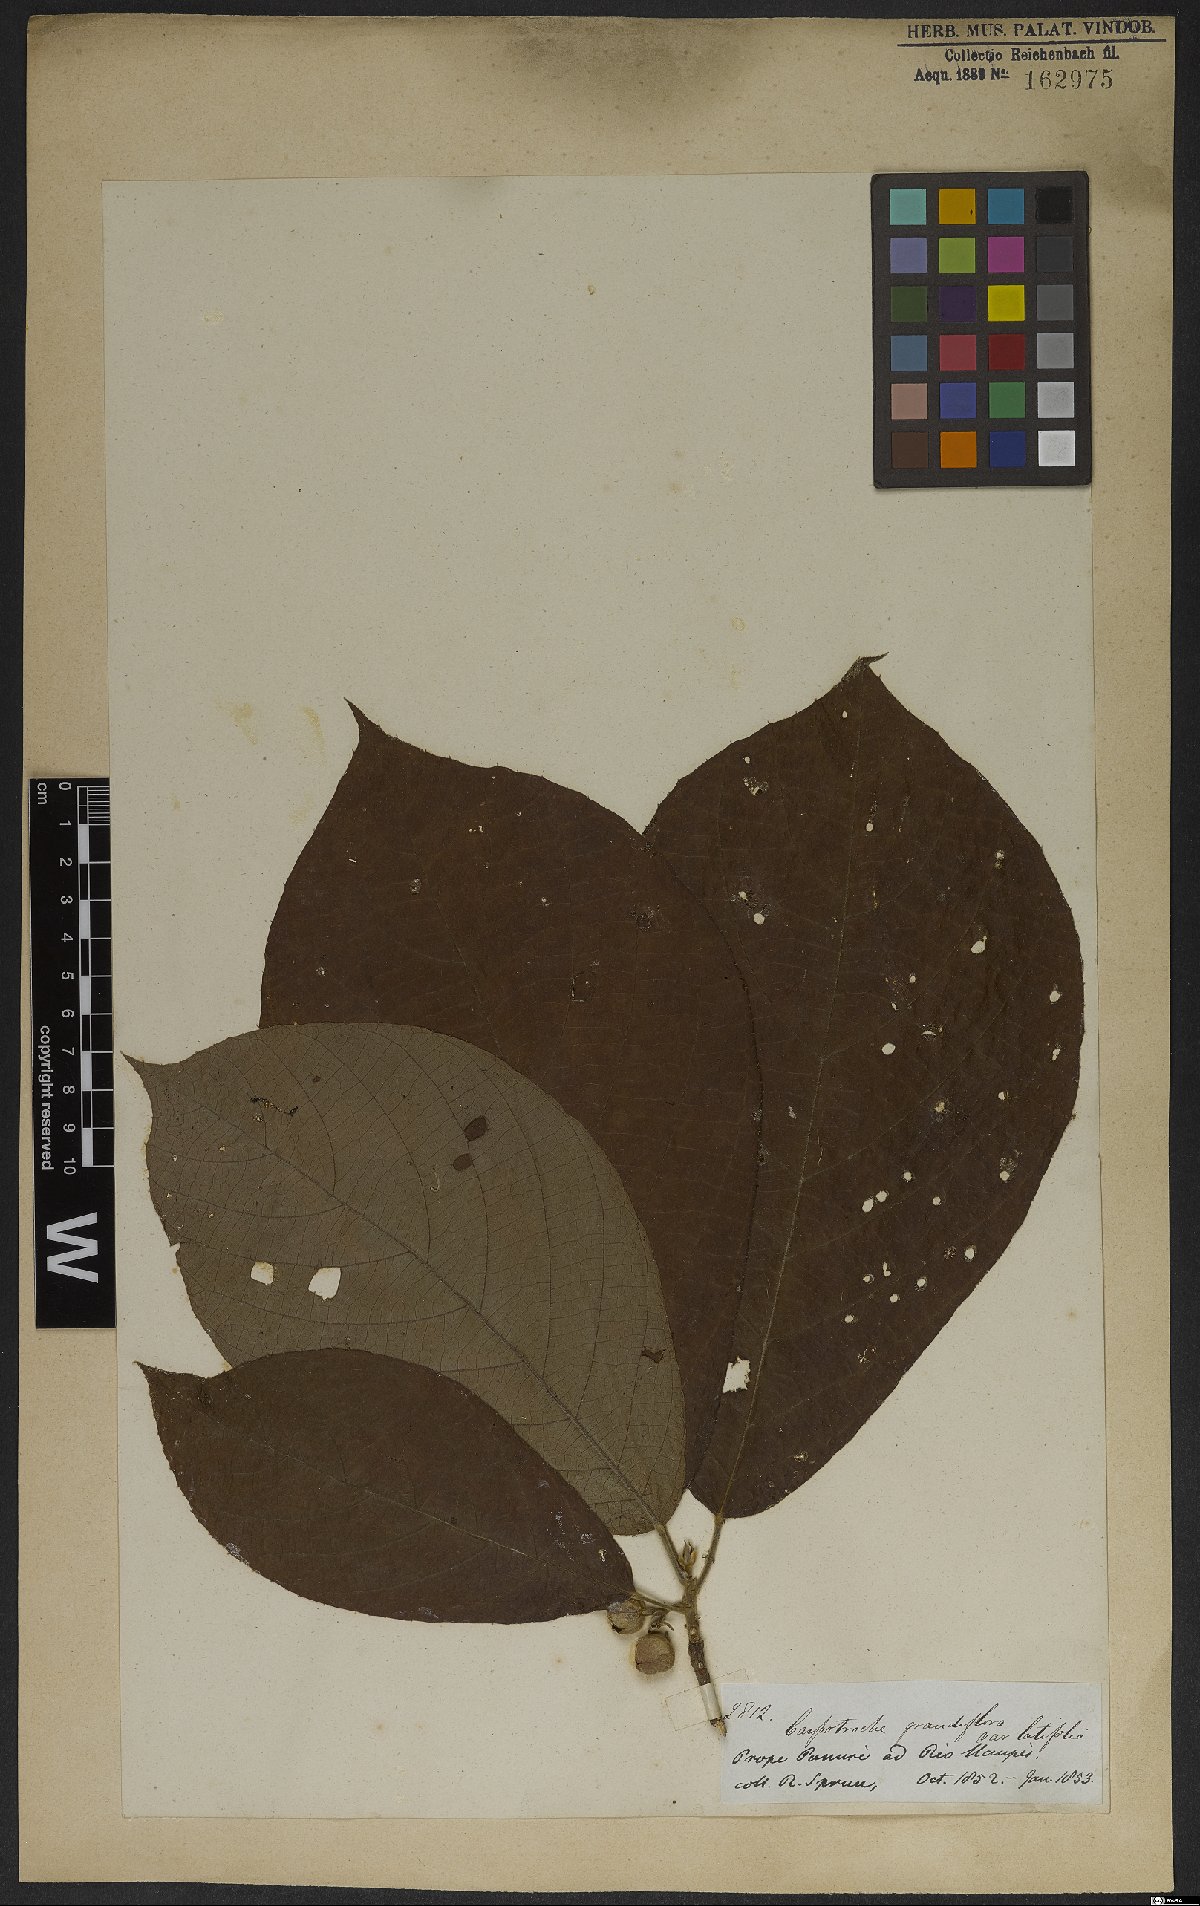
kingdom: Plantae
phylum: Tracheophyta
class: Magnoliopsida
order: Malpighiales
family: Achariaceae
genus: Carpotroche
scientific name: Carpotroche amazonica
